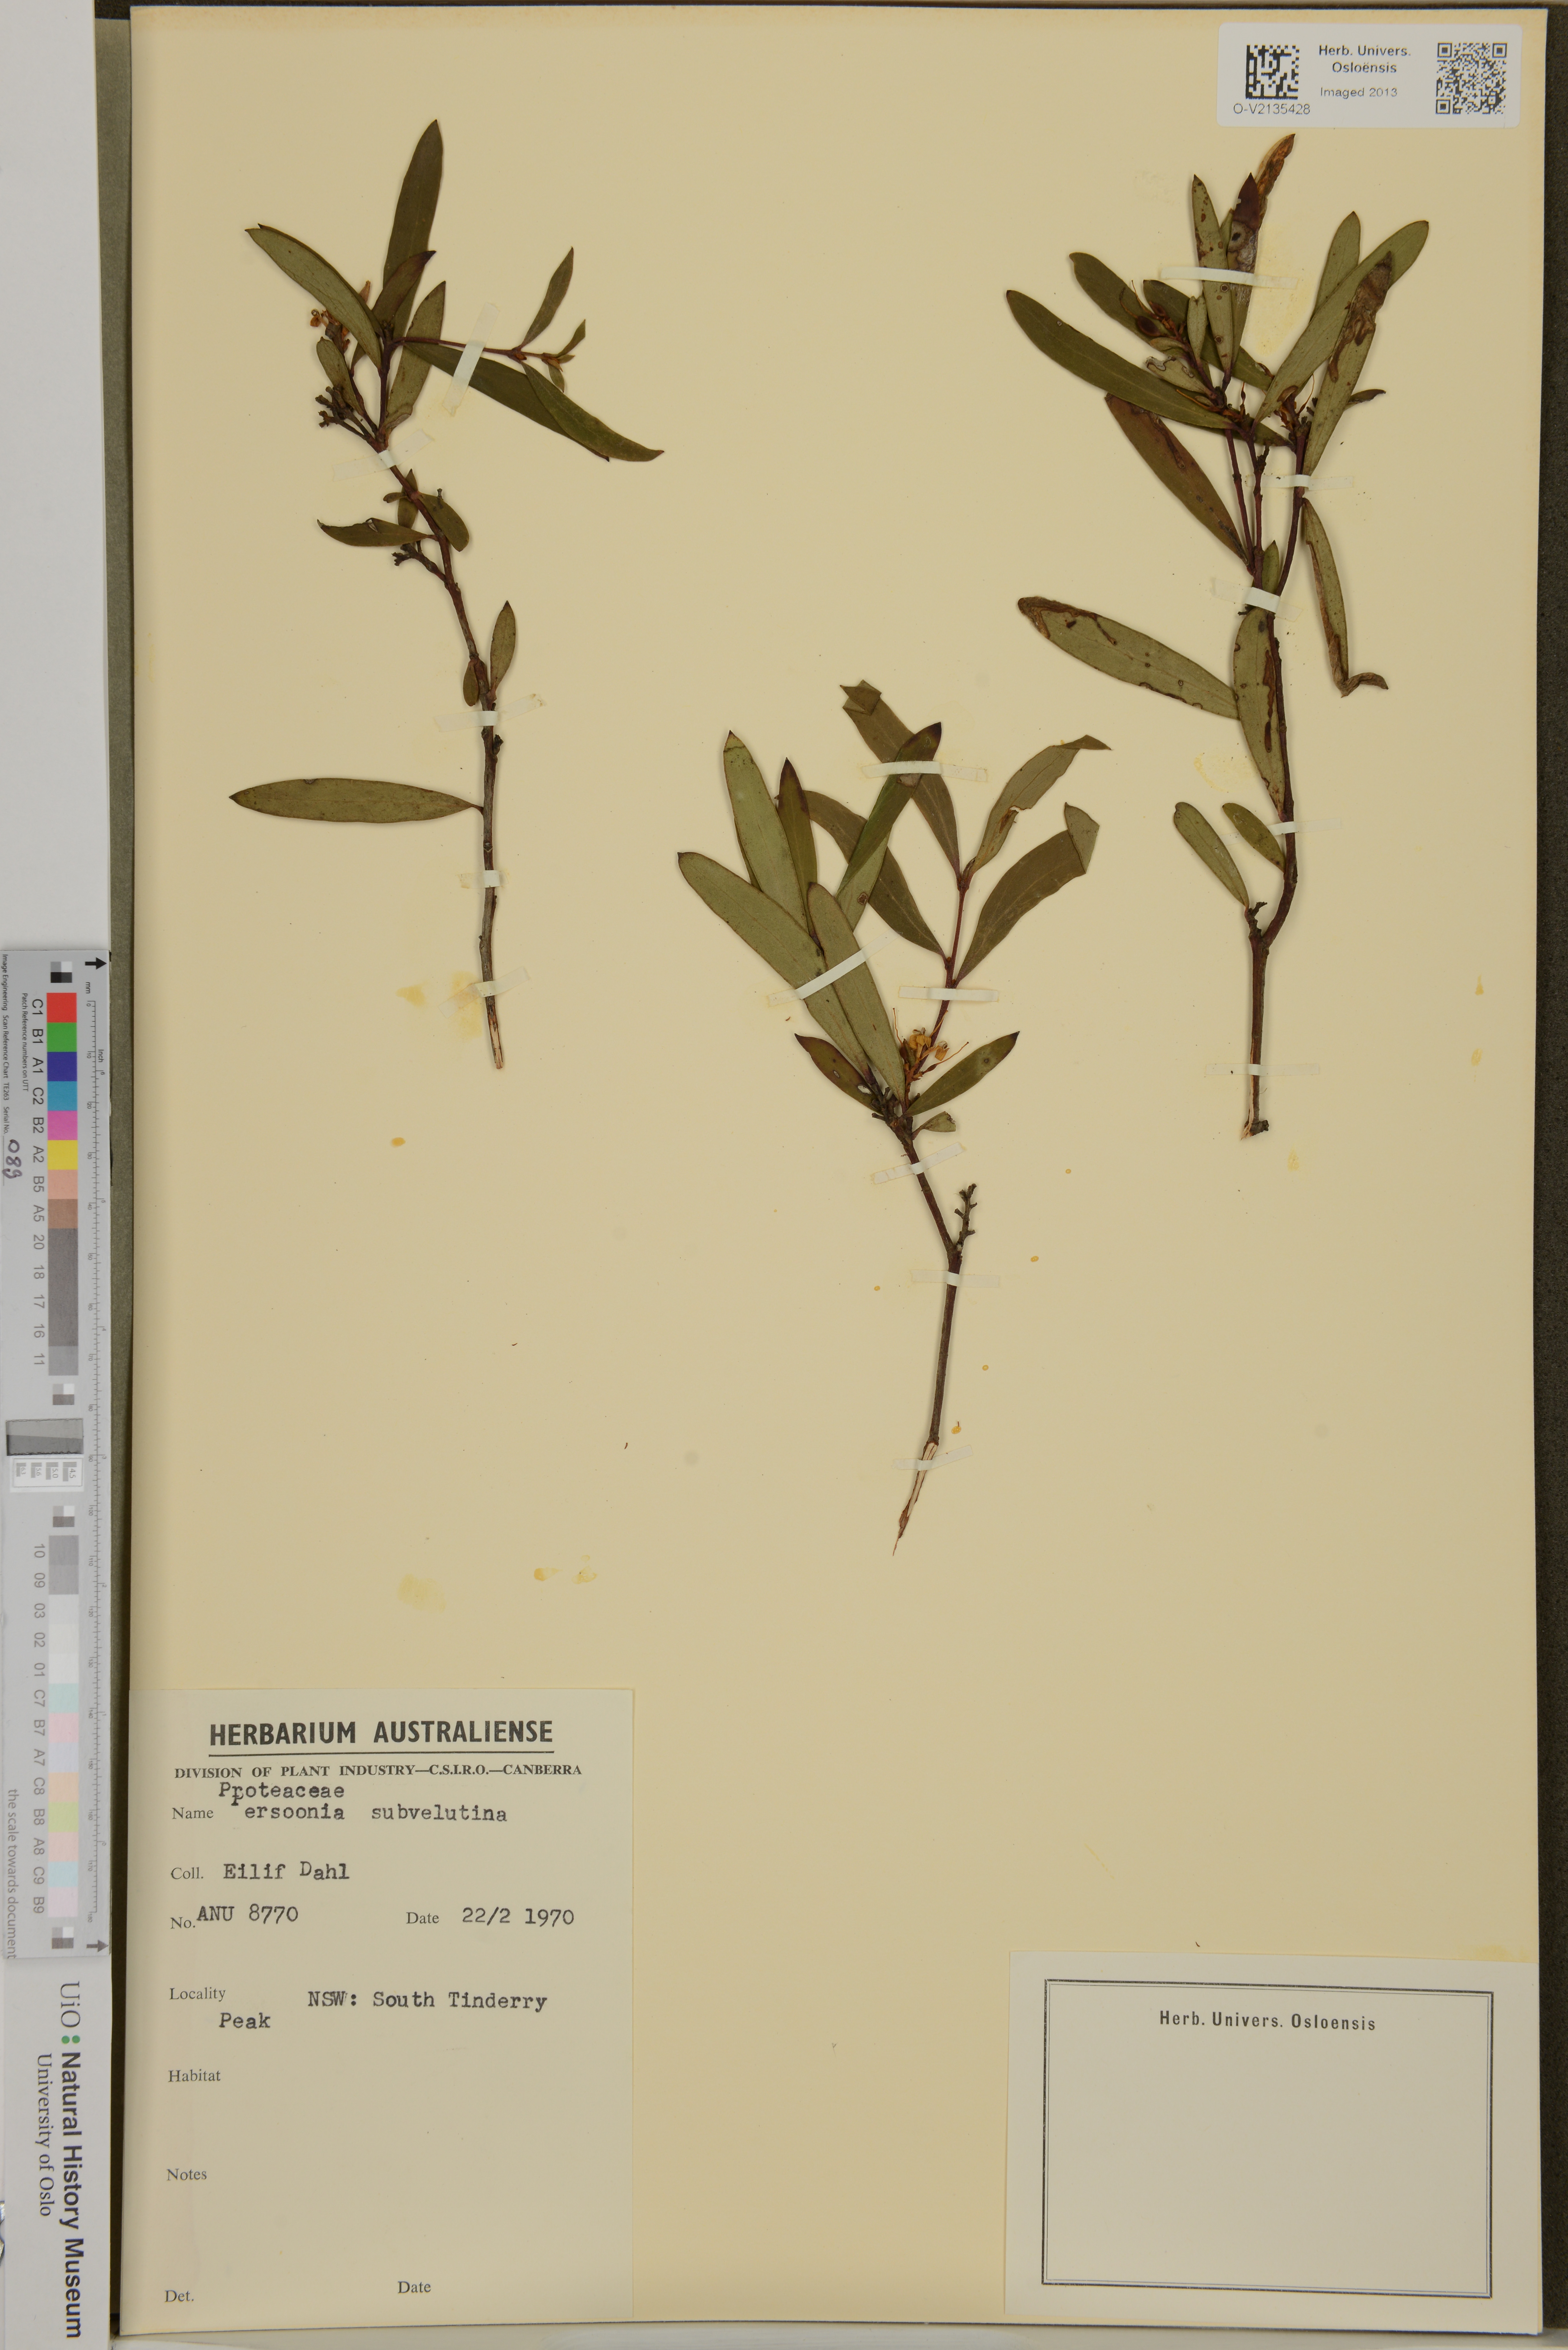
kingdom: Plantae
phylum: Tracheophyta
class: Magnoliopsida
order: Proteales
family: Proteaceae
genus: Persoonia
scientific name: Persoonia subvelutina
